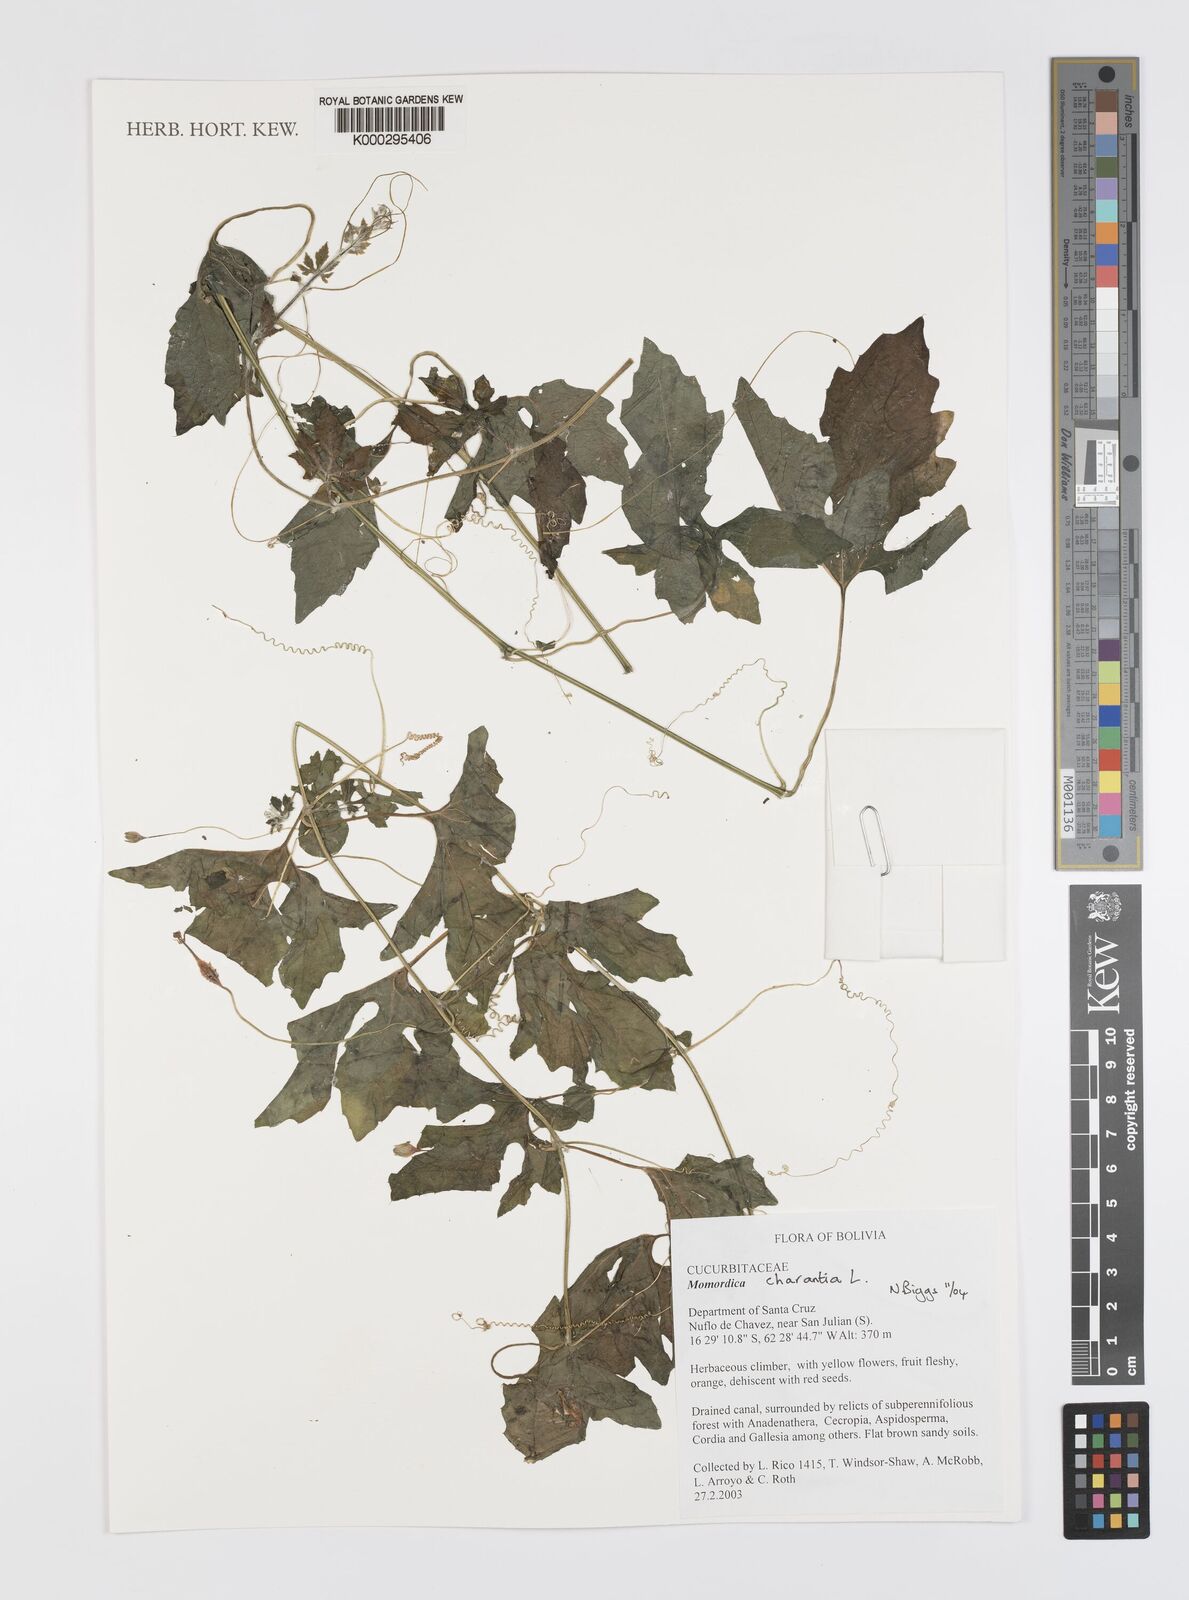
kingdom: Plantae
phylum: Tracheophyta
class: Magnoliopsida
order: Cucurbitales
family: Cucurbitaceae
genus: Momordica
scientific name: Momordica charantia
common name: Balsampear
